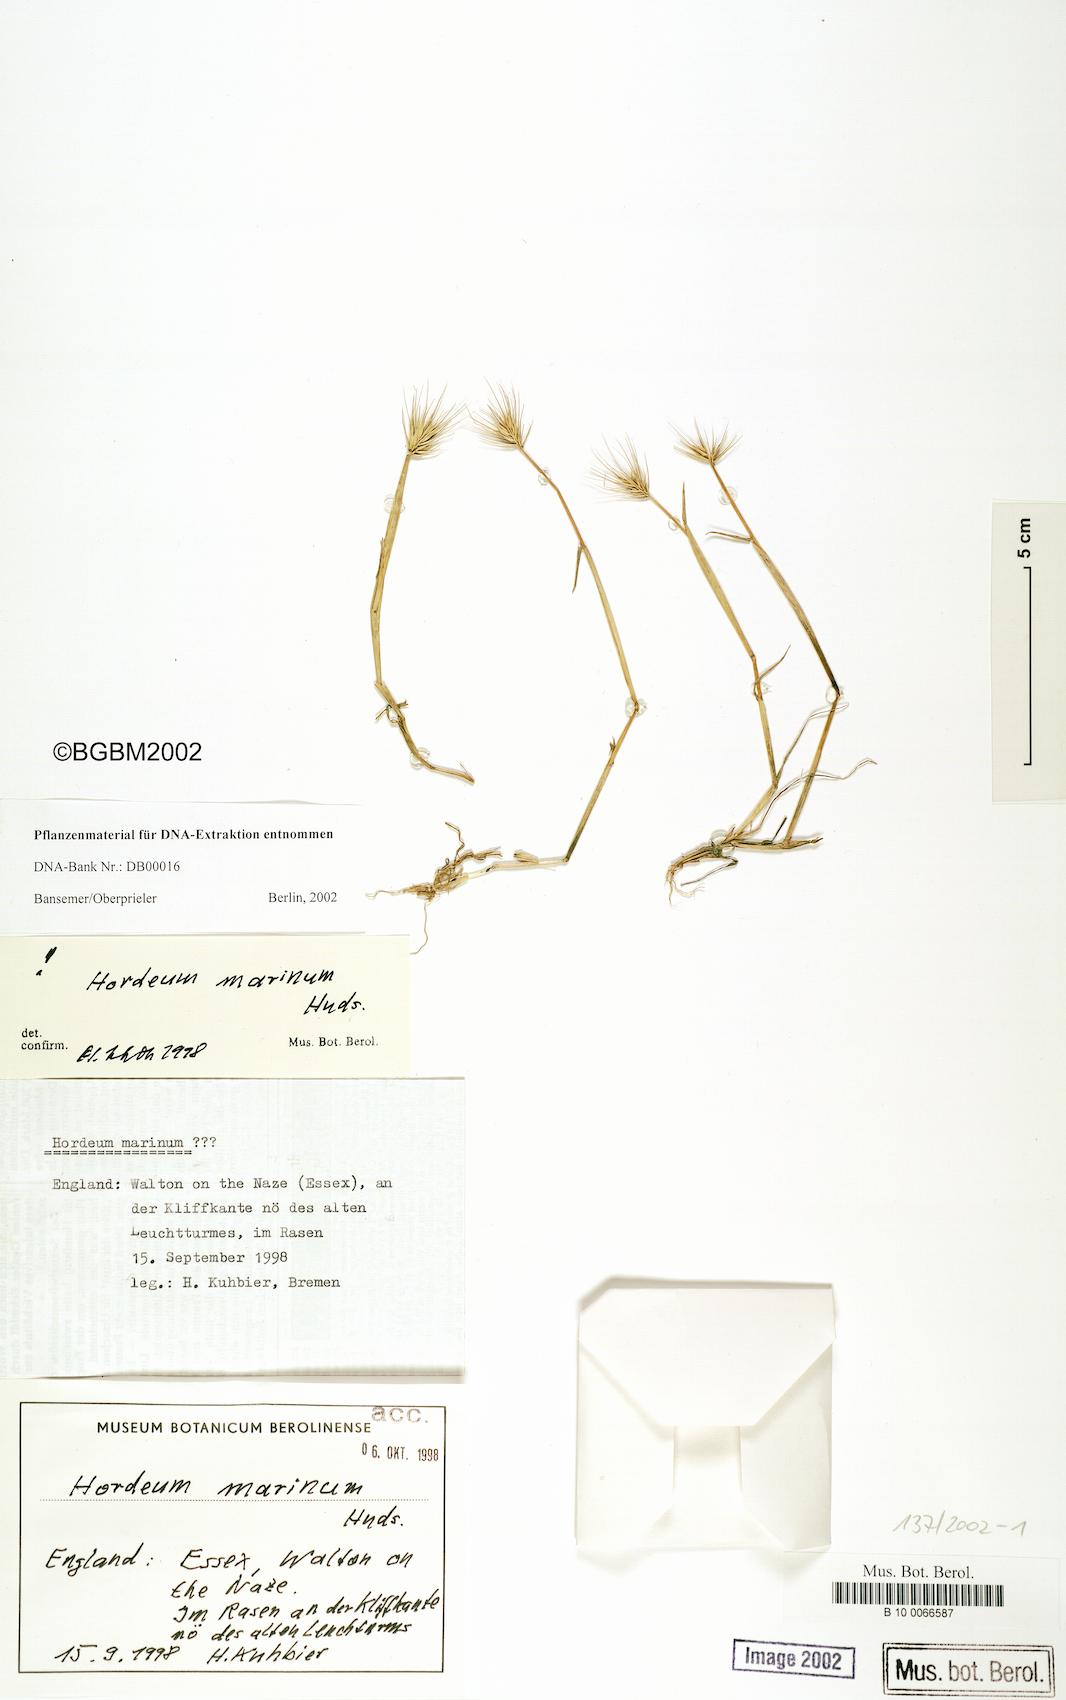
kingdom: Plantae
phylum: Tracheophyta
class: Liliopsida
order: Poales
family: Poaceae
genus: Hordeum
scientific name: Hordeum marinum
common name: Sea barley
